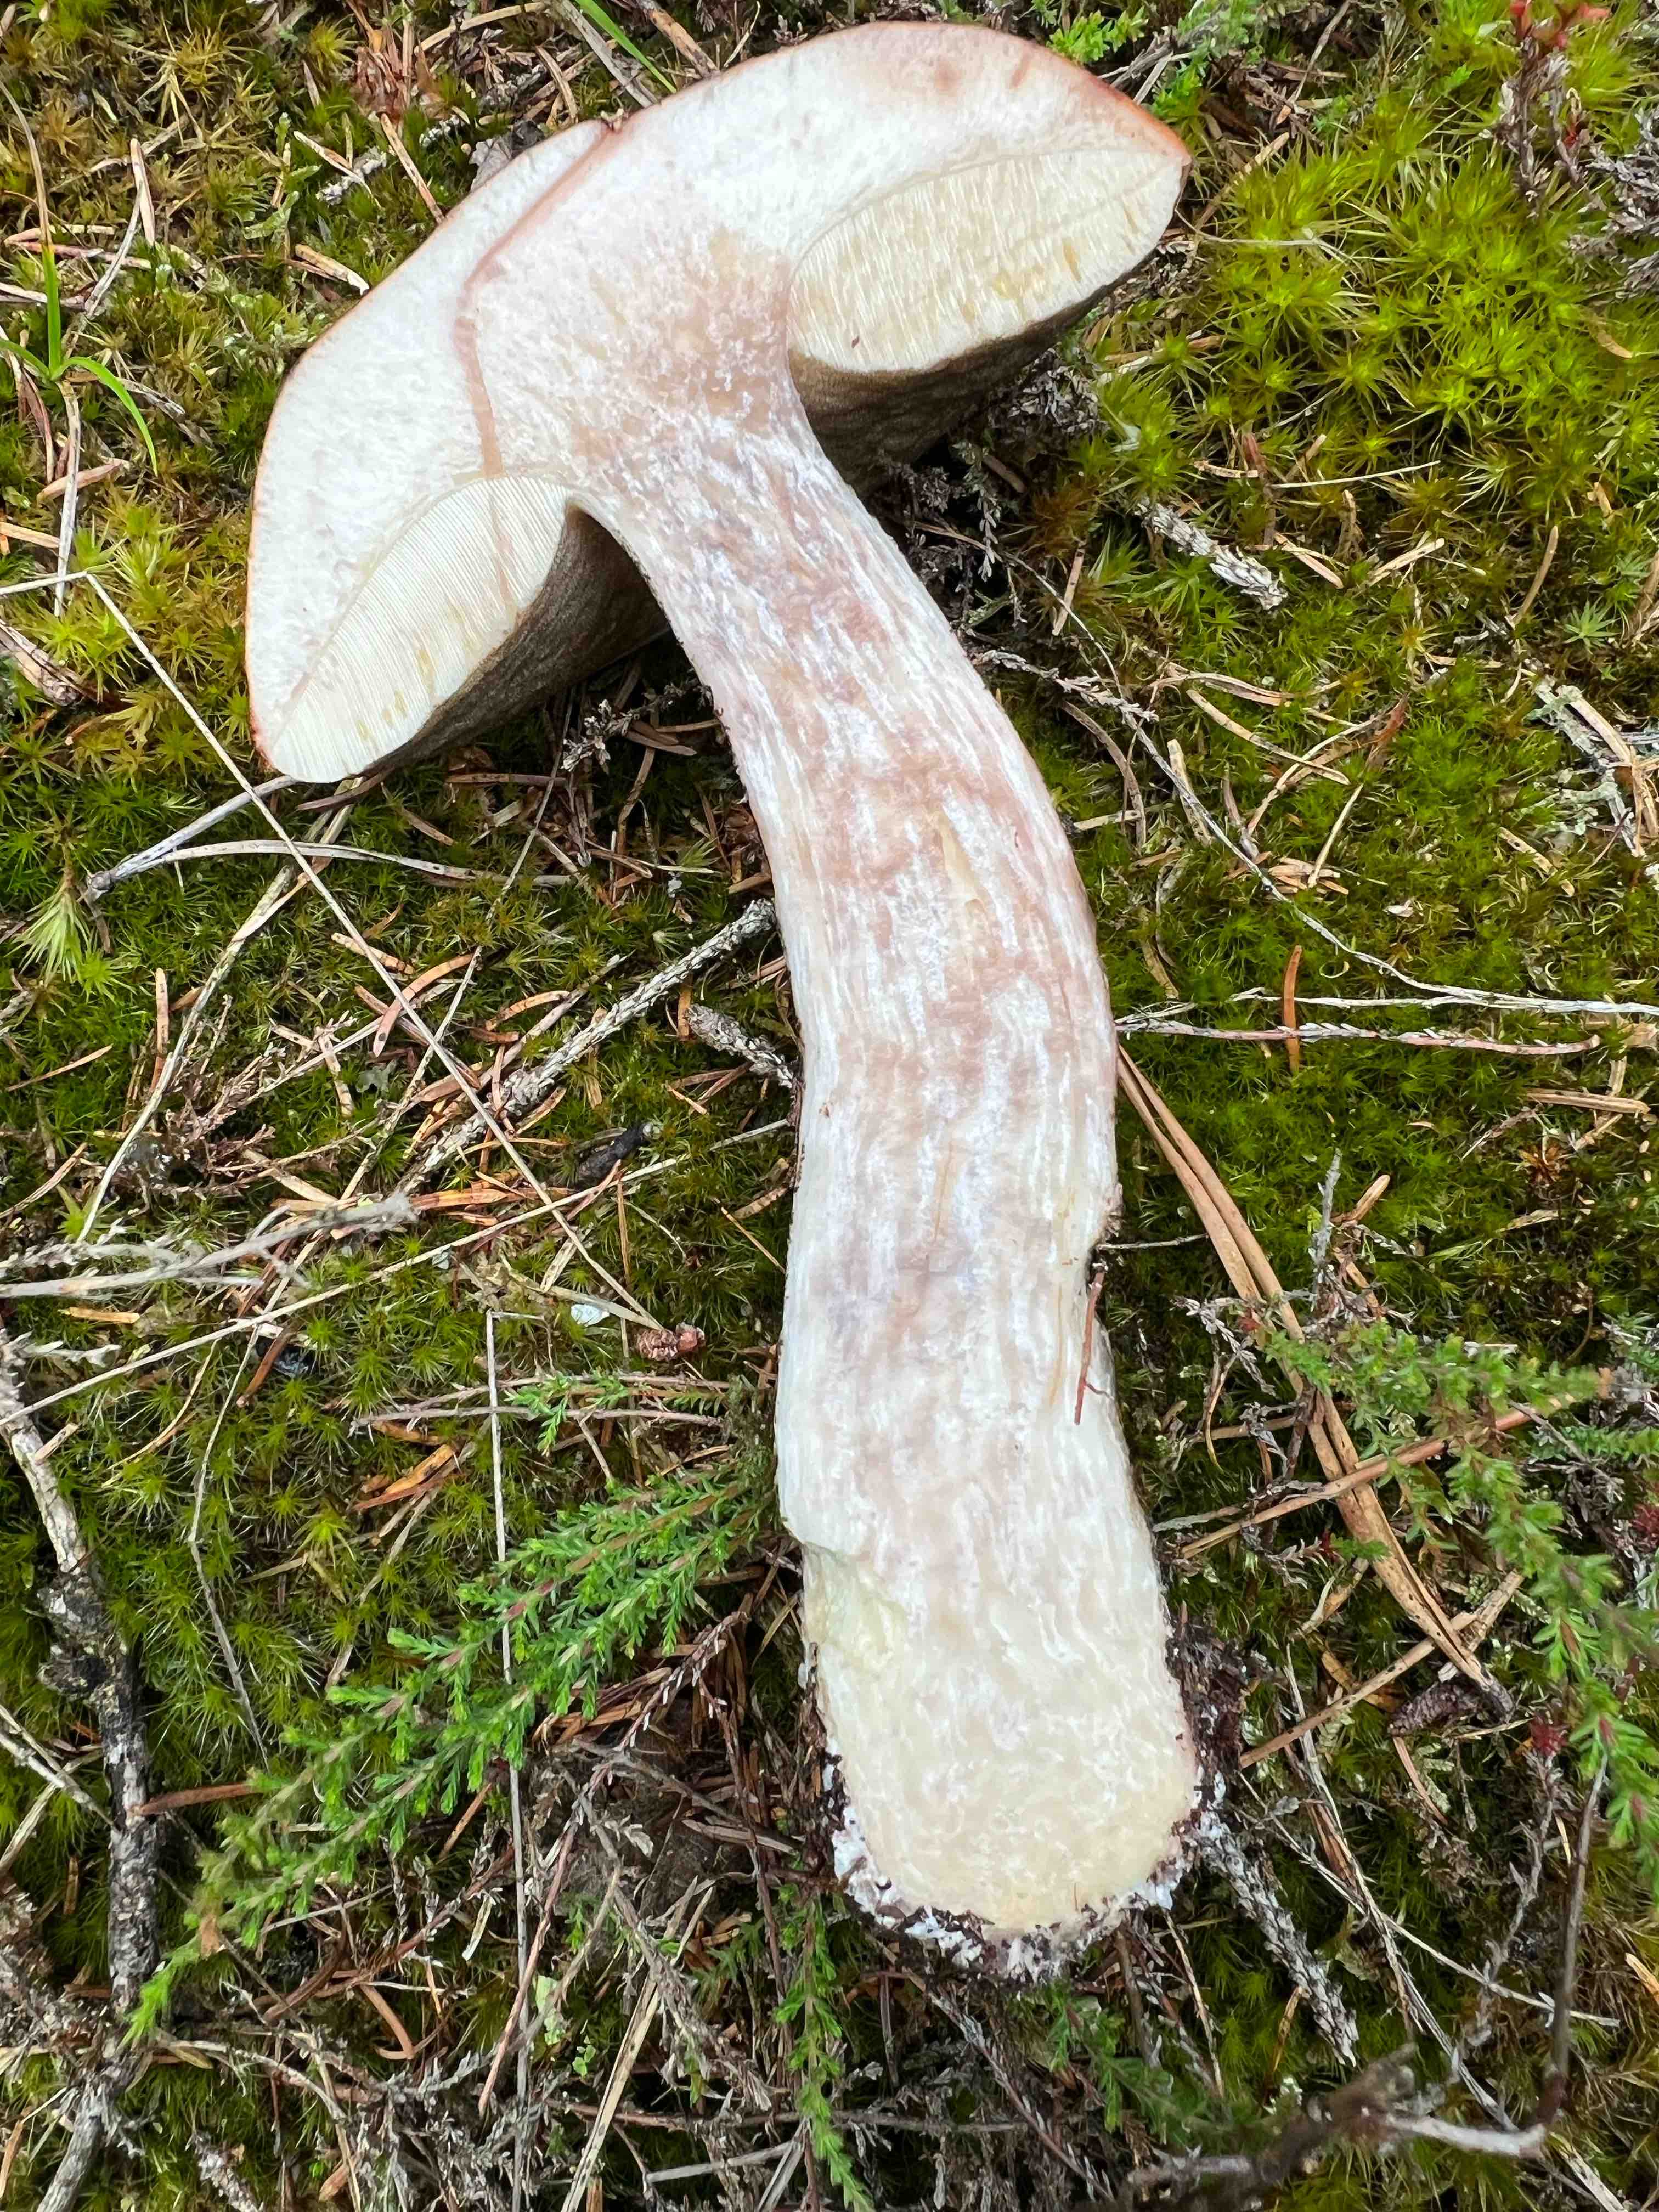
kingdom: Fungi
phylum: Basidiomycota
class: Agaricomycetes
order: Boletales
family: Boletaceae
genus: Leccinum
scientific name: Leccinum vulpinum
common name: fyrre-skælrørhat
